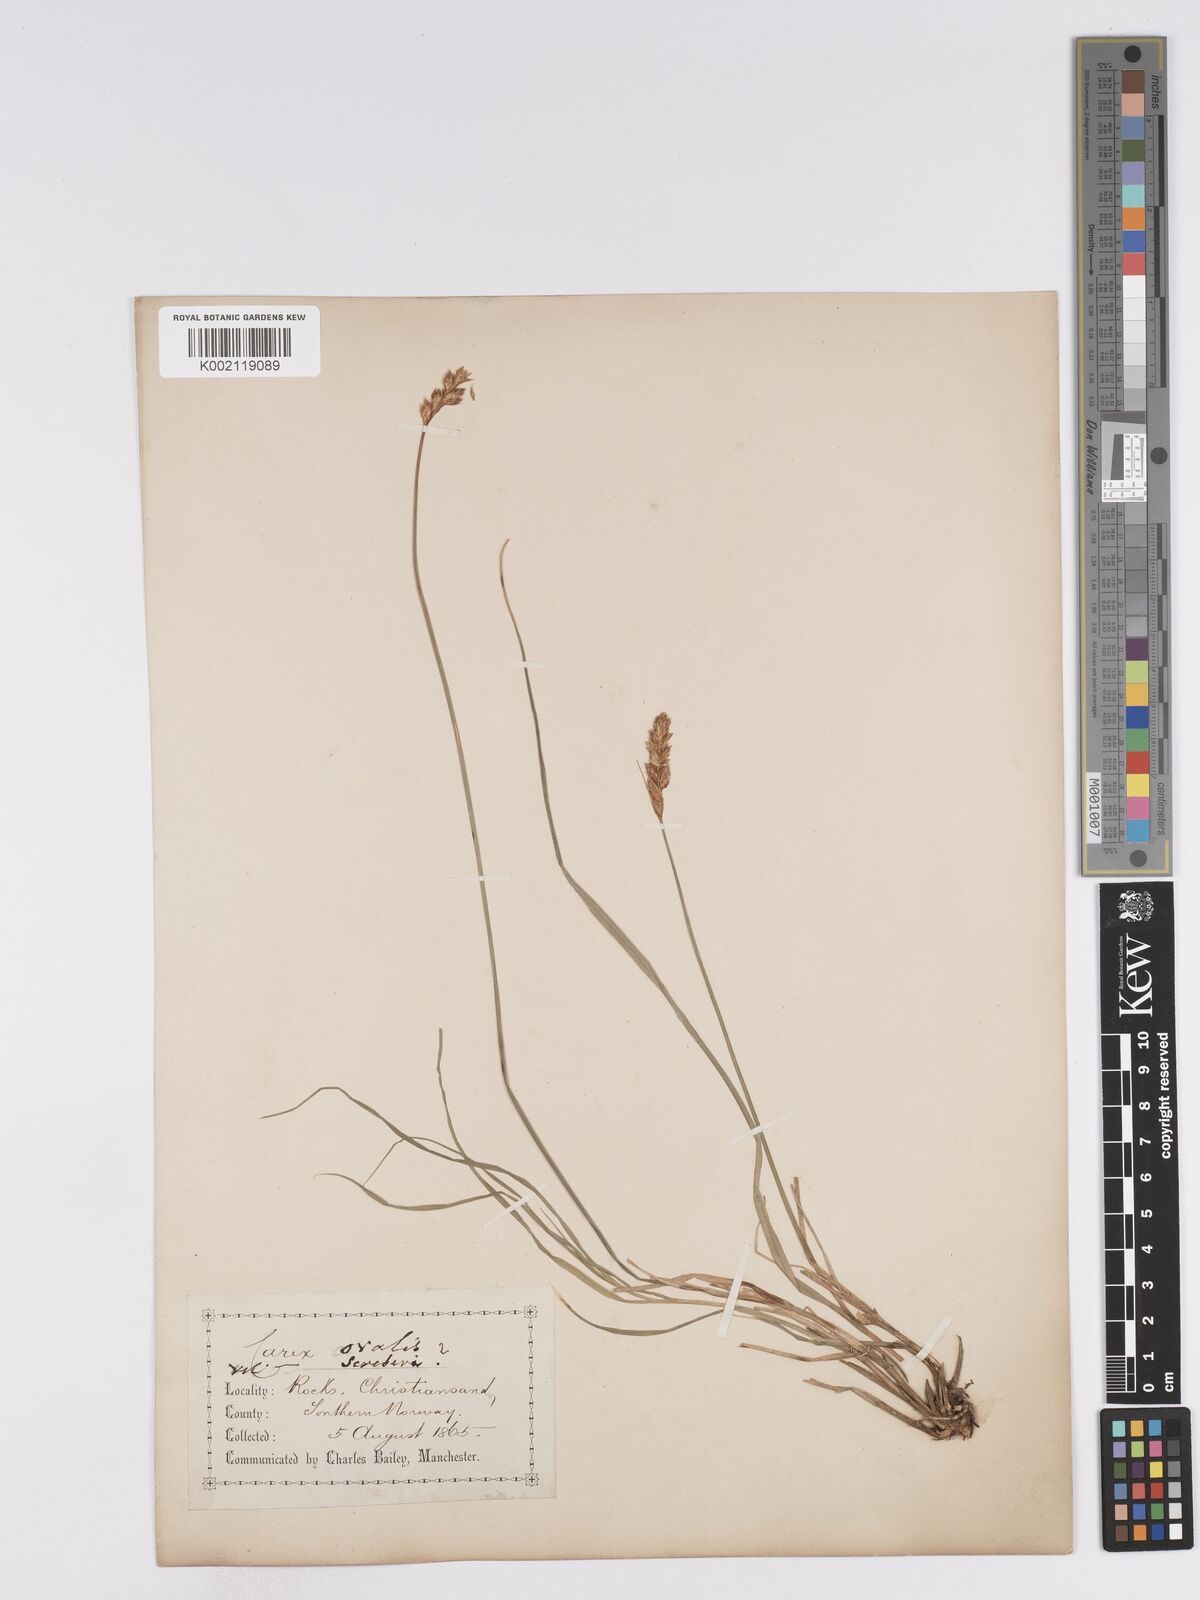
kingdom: Plantae
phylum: Tracheophyta
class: Liliopsida
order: Poales
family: Cyperaceae
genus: Carex
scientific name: Carex leporina
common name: Oval sedge
